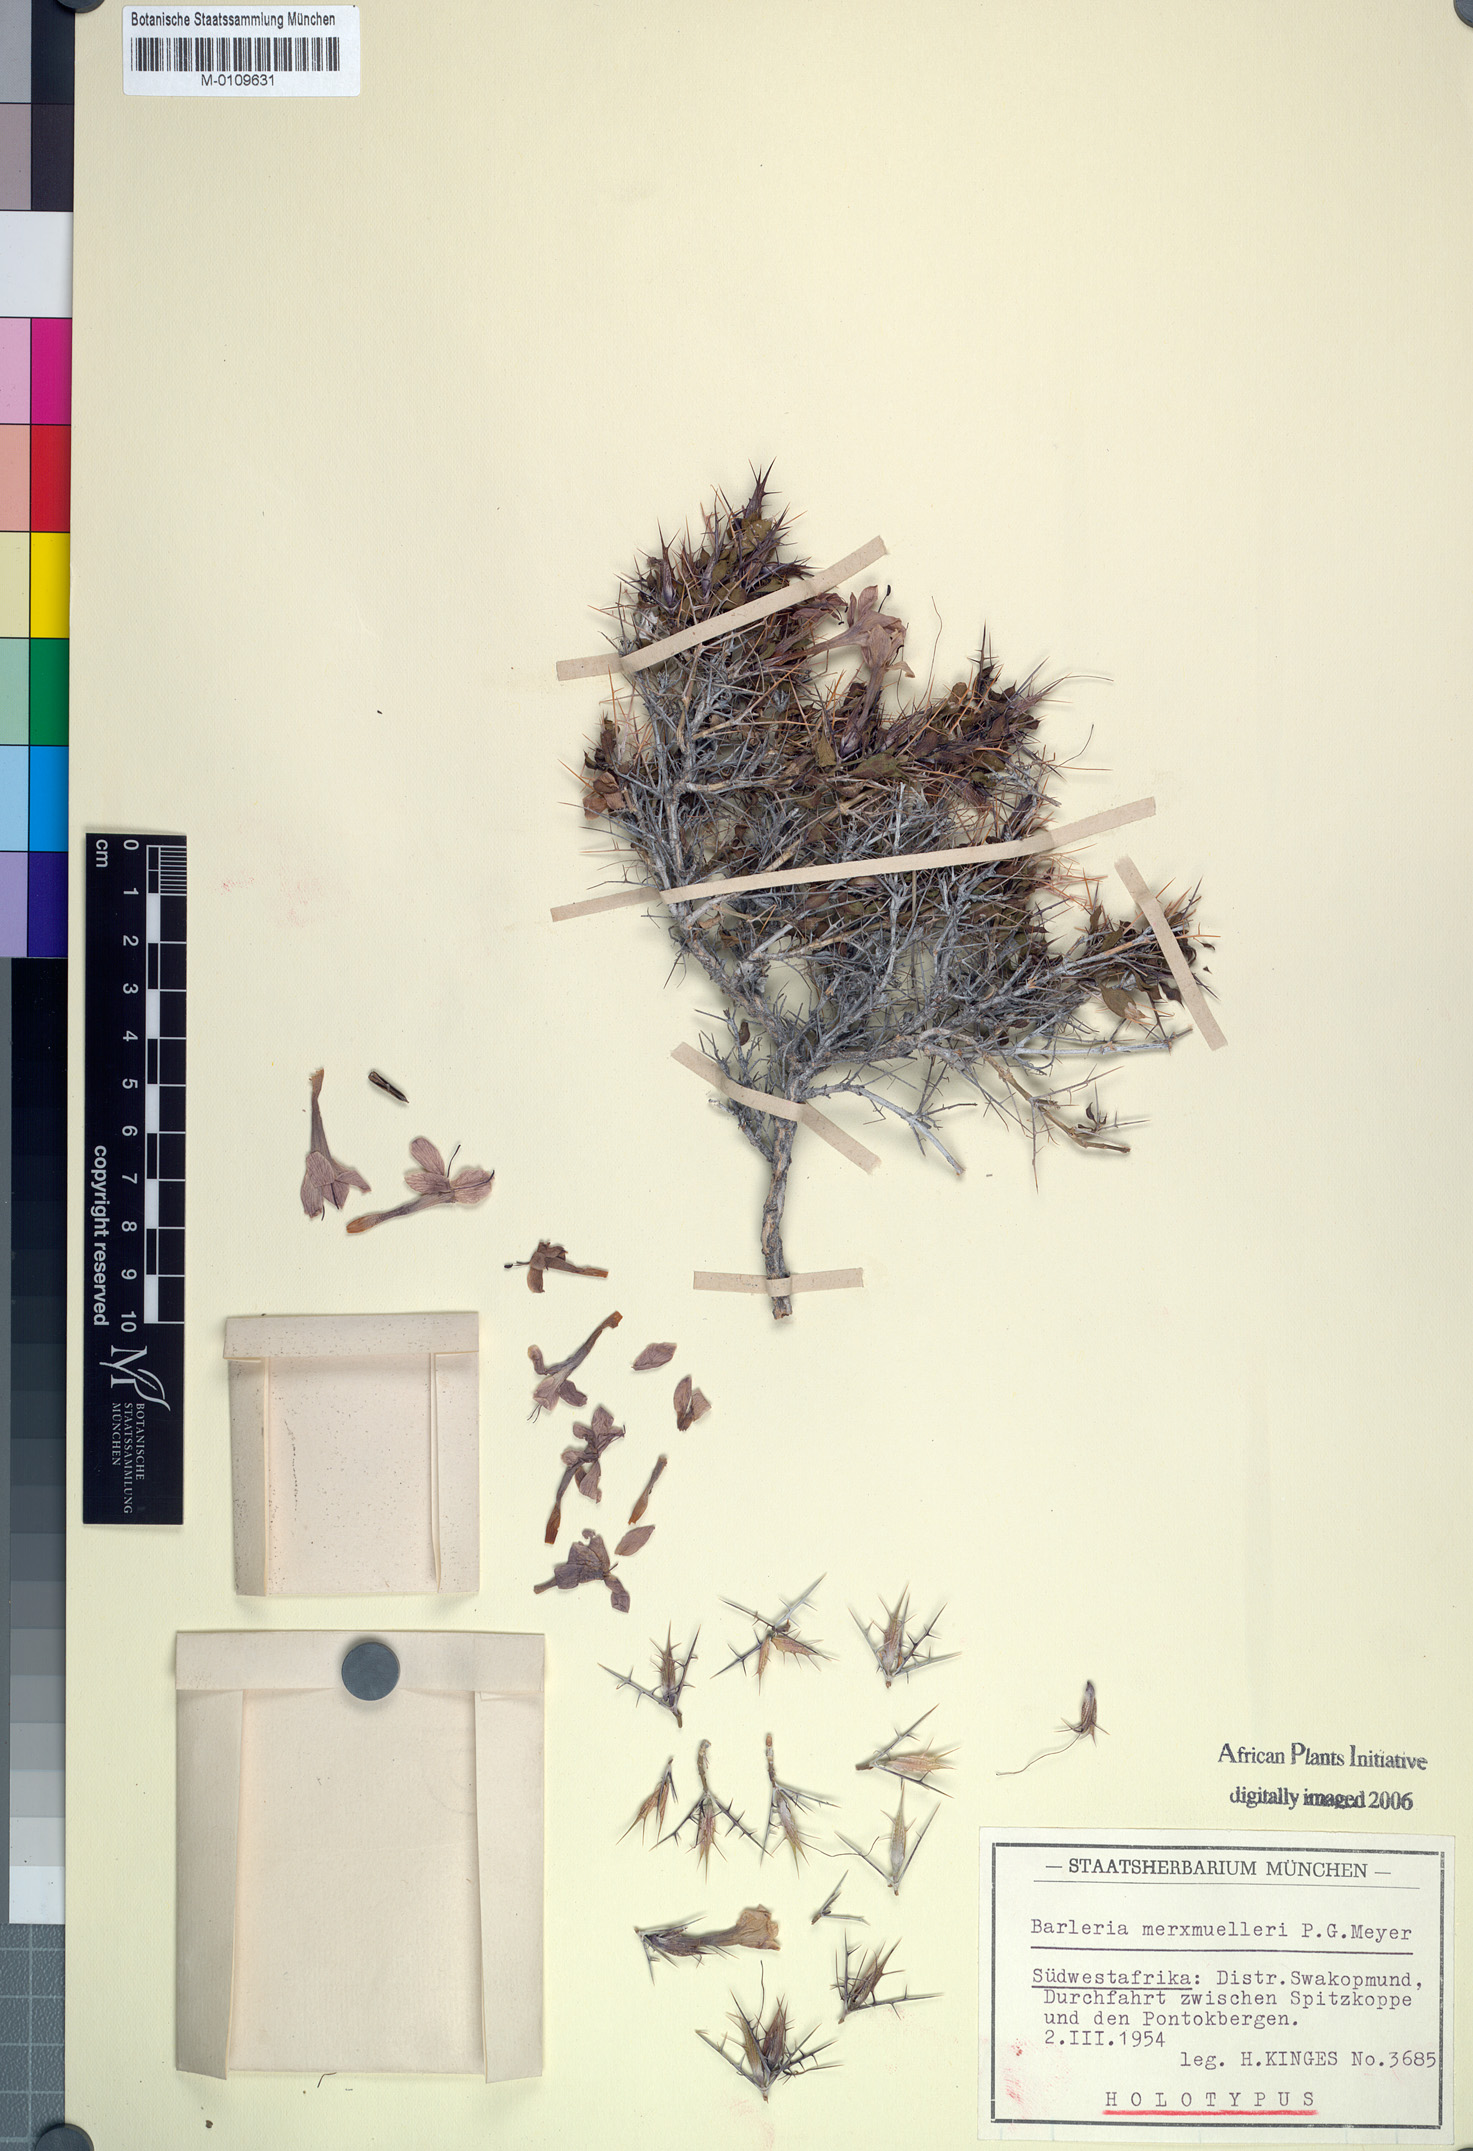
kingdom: Plantae
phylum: Tracheophyta
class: Magnoliopsida
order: Lamiales
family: Acanthaceae
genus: Barleria
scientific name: Barleria merxmuelleri
